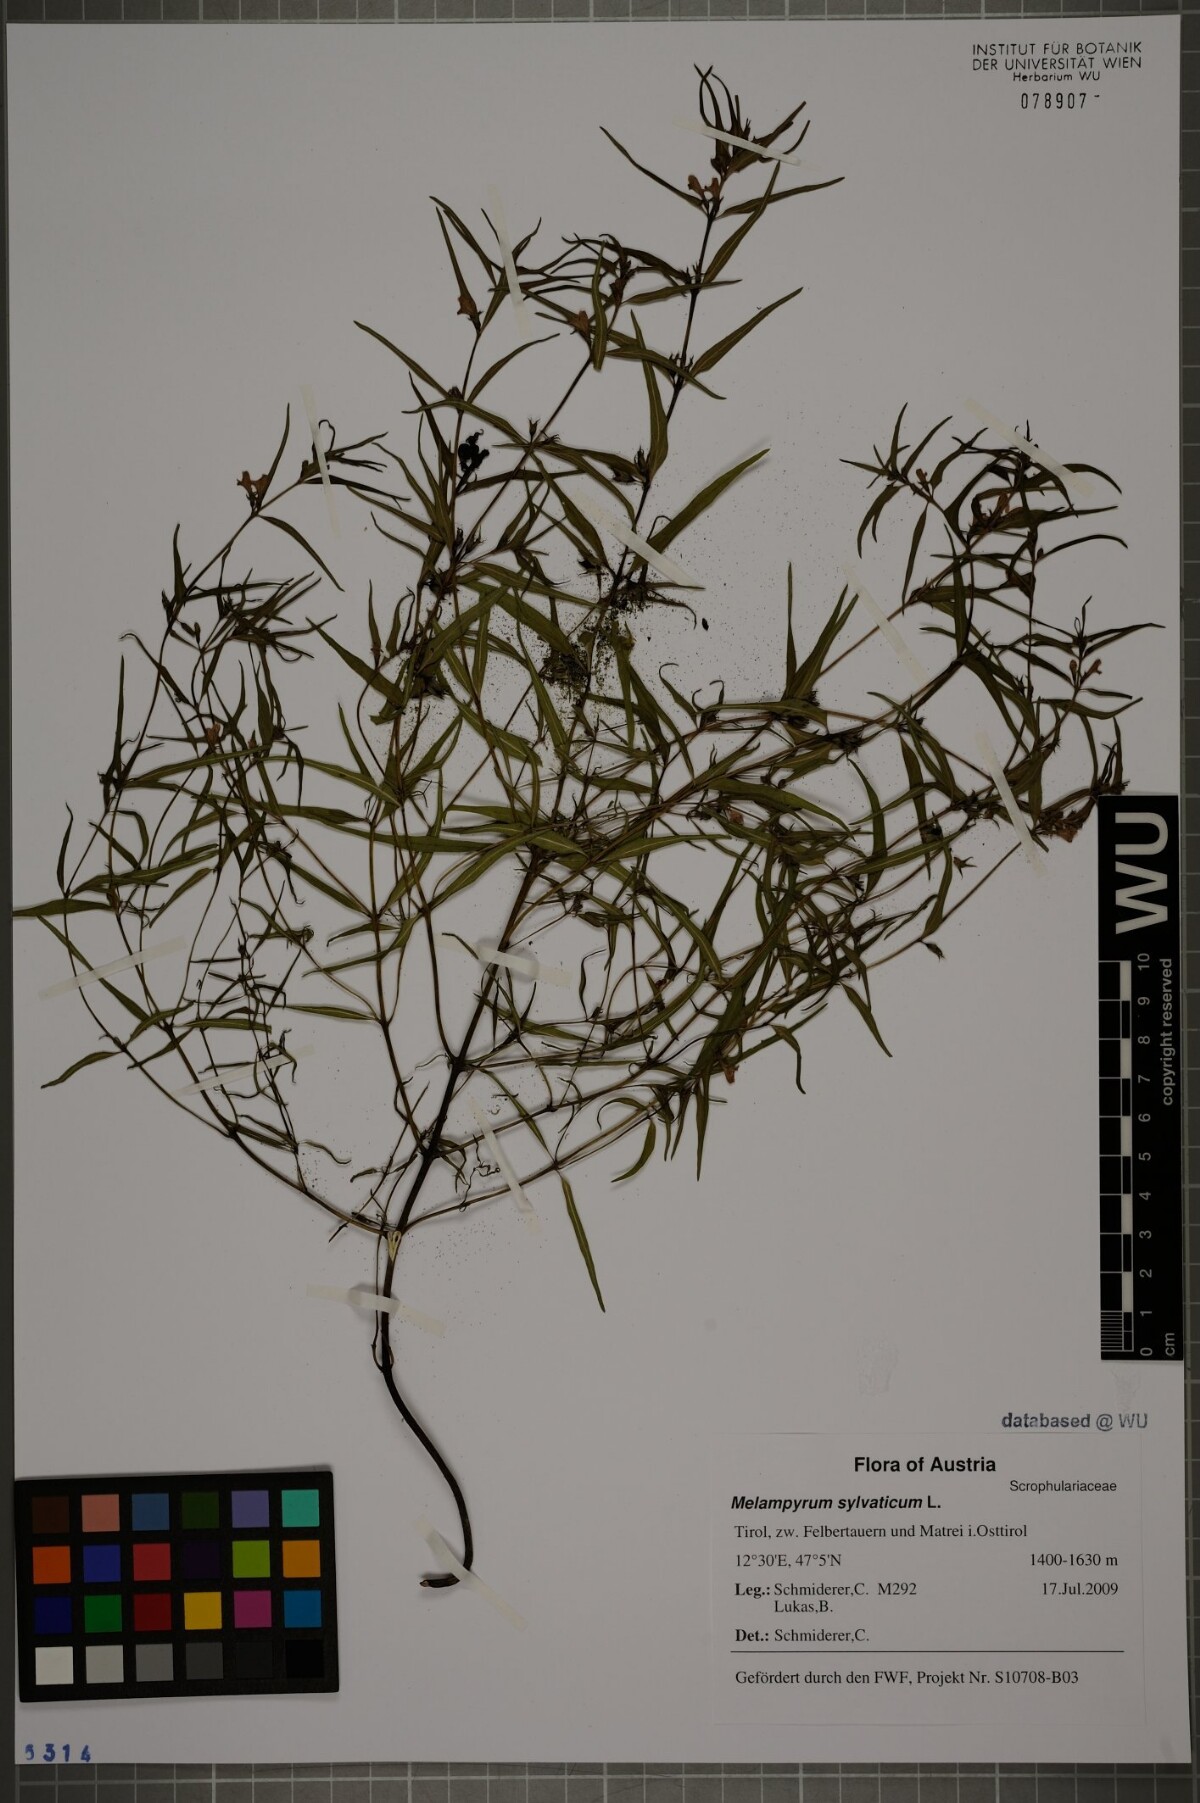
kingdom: Plantae
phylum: Tracheophyta
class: Magnoliopsida
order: Lamiales
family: Orobanchaceae
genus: Melampyrum
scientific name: Melampyrum sylvaticum
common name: Small cow-wheat
